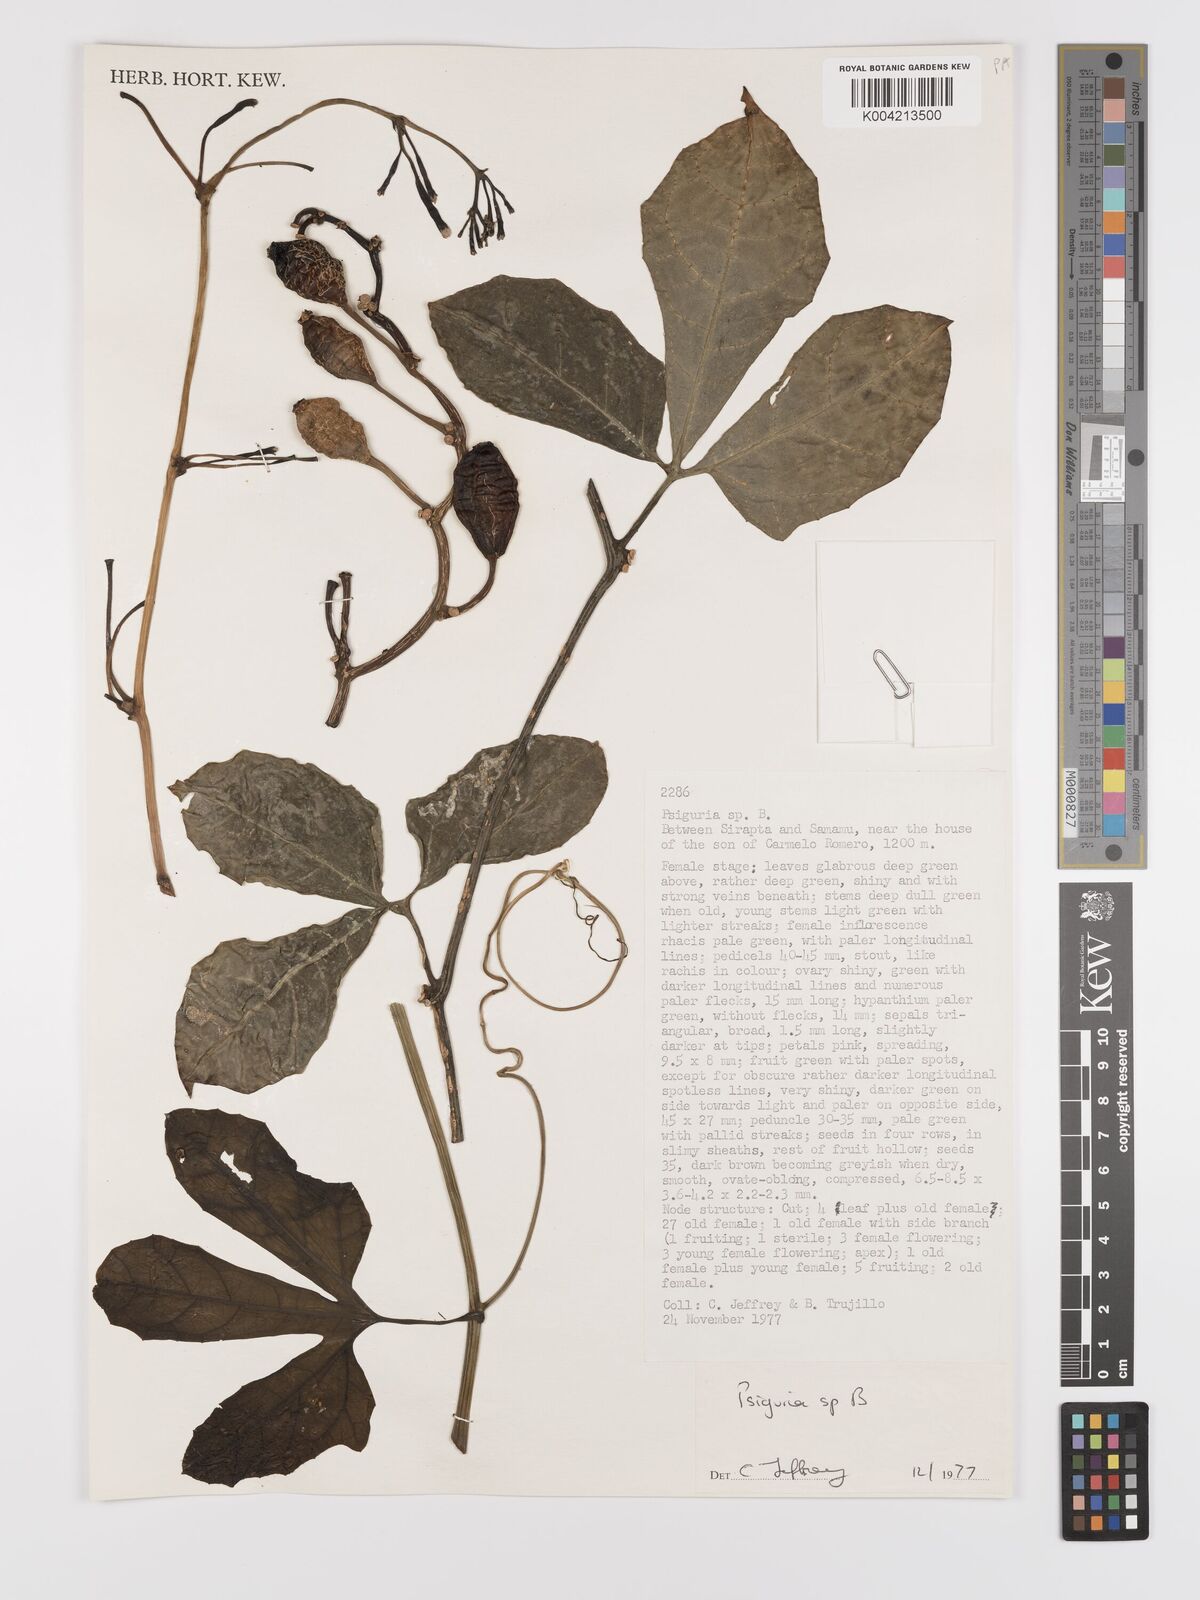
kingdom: Plantae
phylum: Tracheophyta
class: Magnoliopsida
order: Cucurbitales
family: Cucurbitaceae
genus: Psiguria
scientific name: Psiguria
